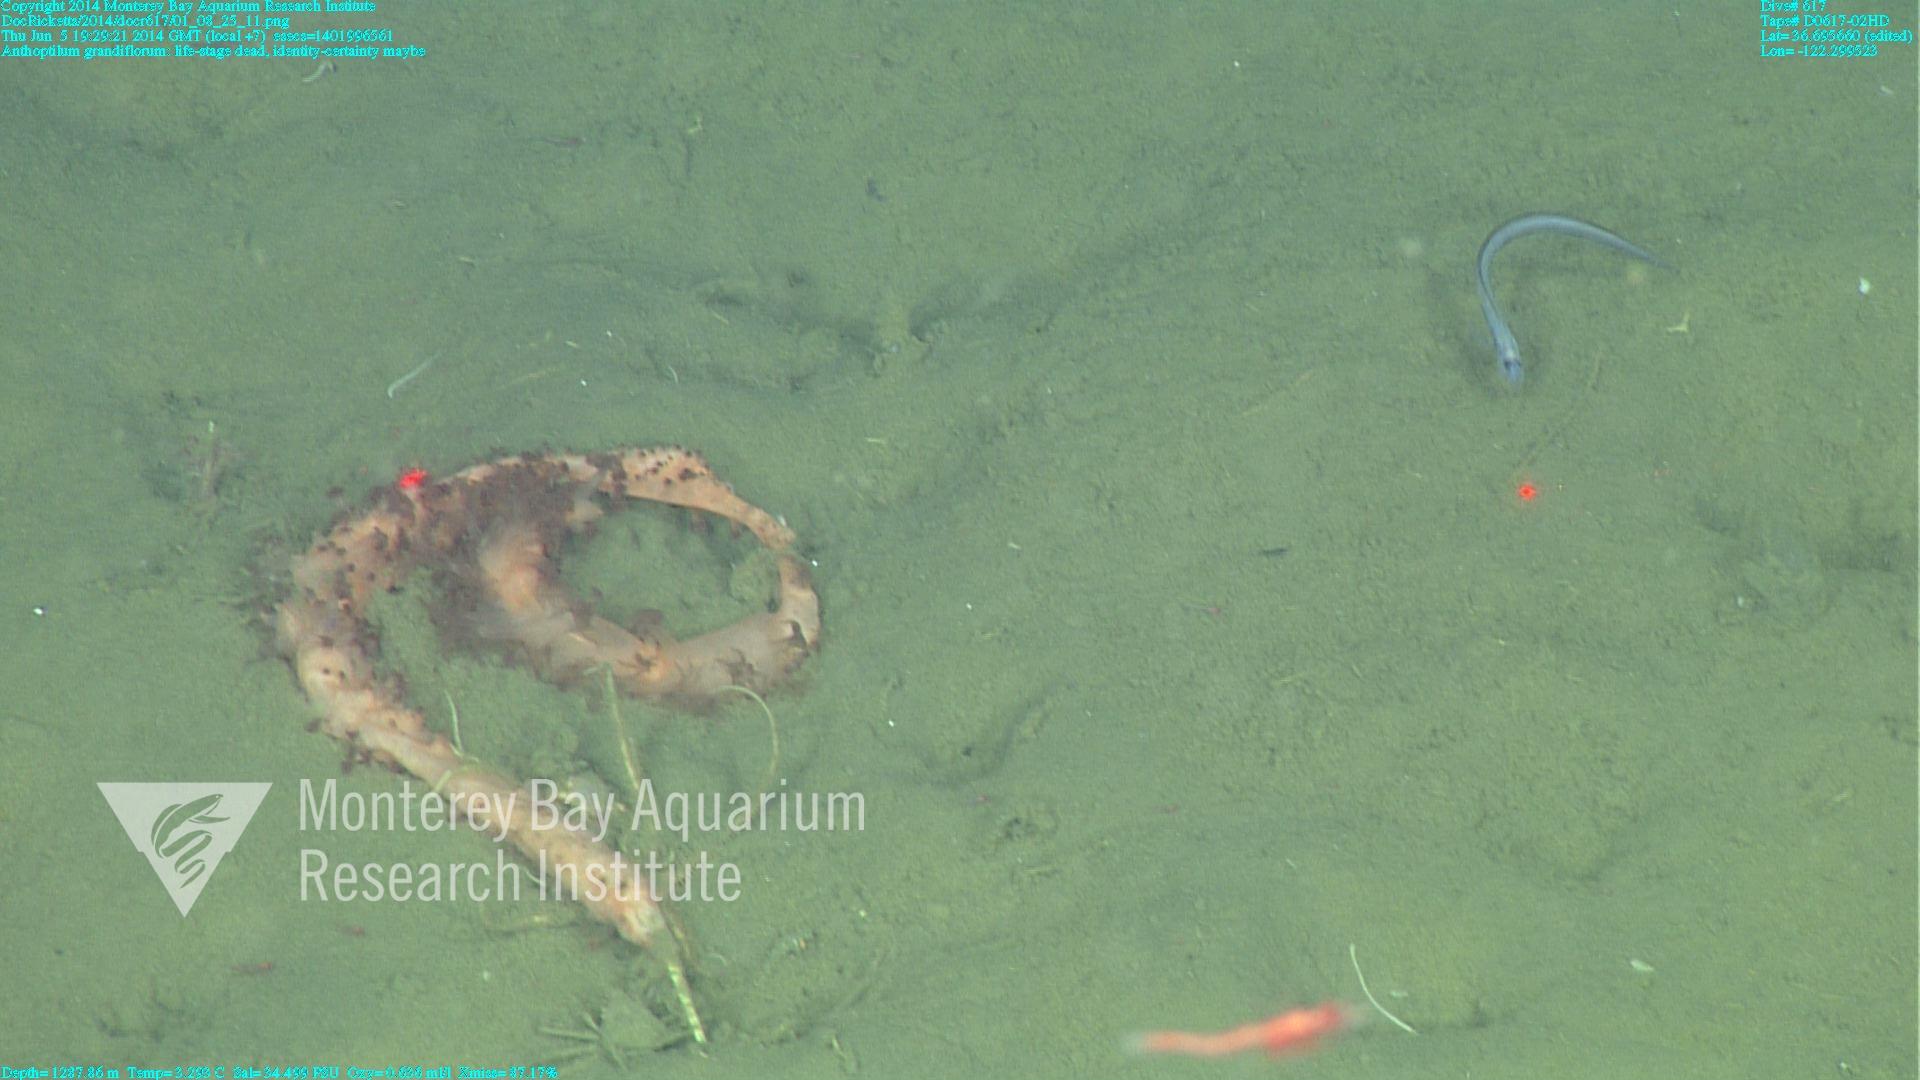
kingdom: Animalia
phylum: Cnidaria
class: Anthozoa
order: Scleralcyonacea
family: Anthoptilidae
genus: Anthoptilum
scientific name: Anthoptilum grandiflorum
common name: Full-flowered sea pen
